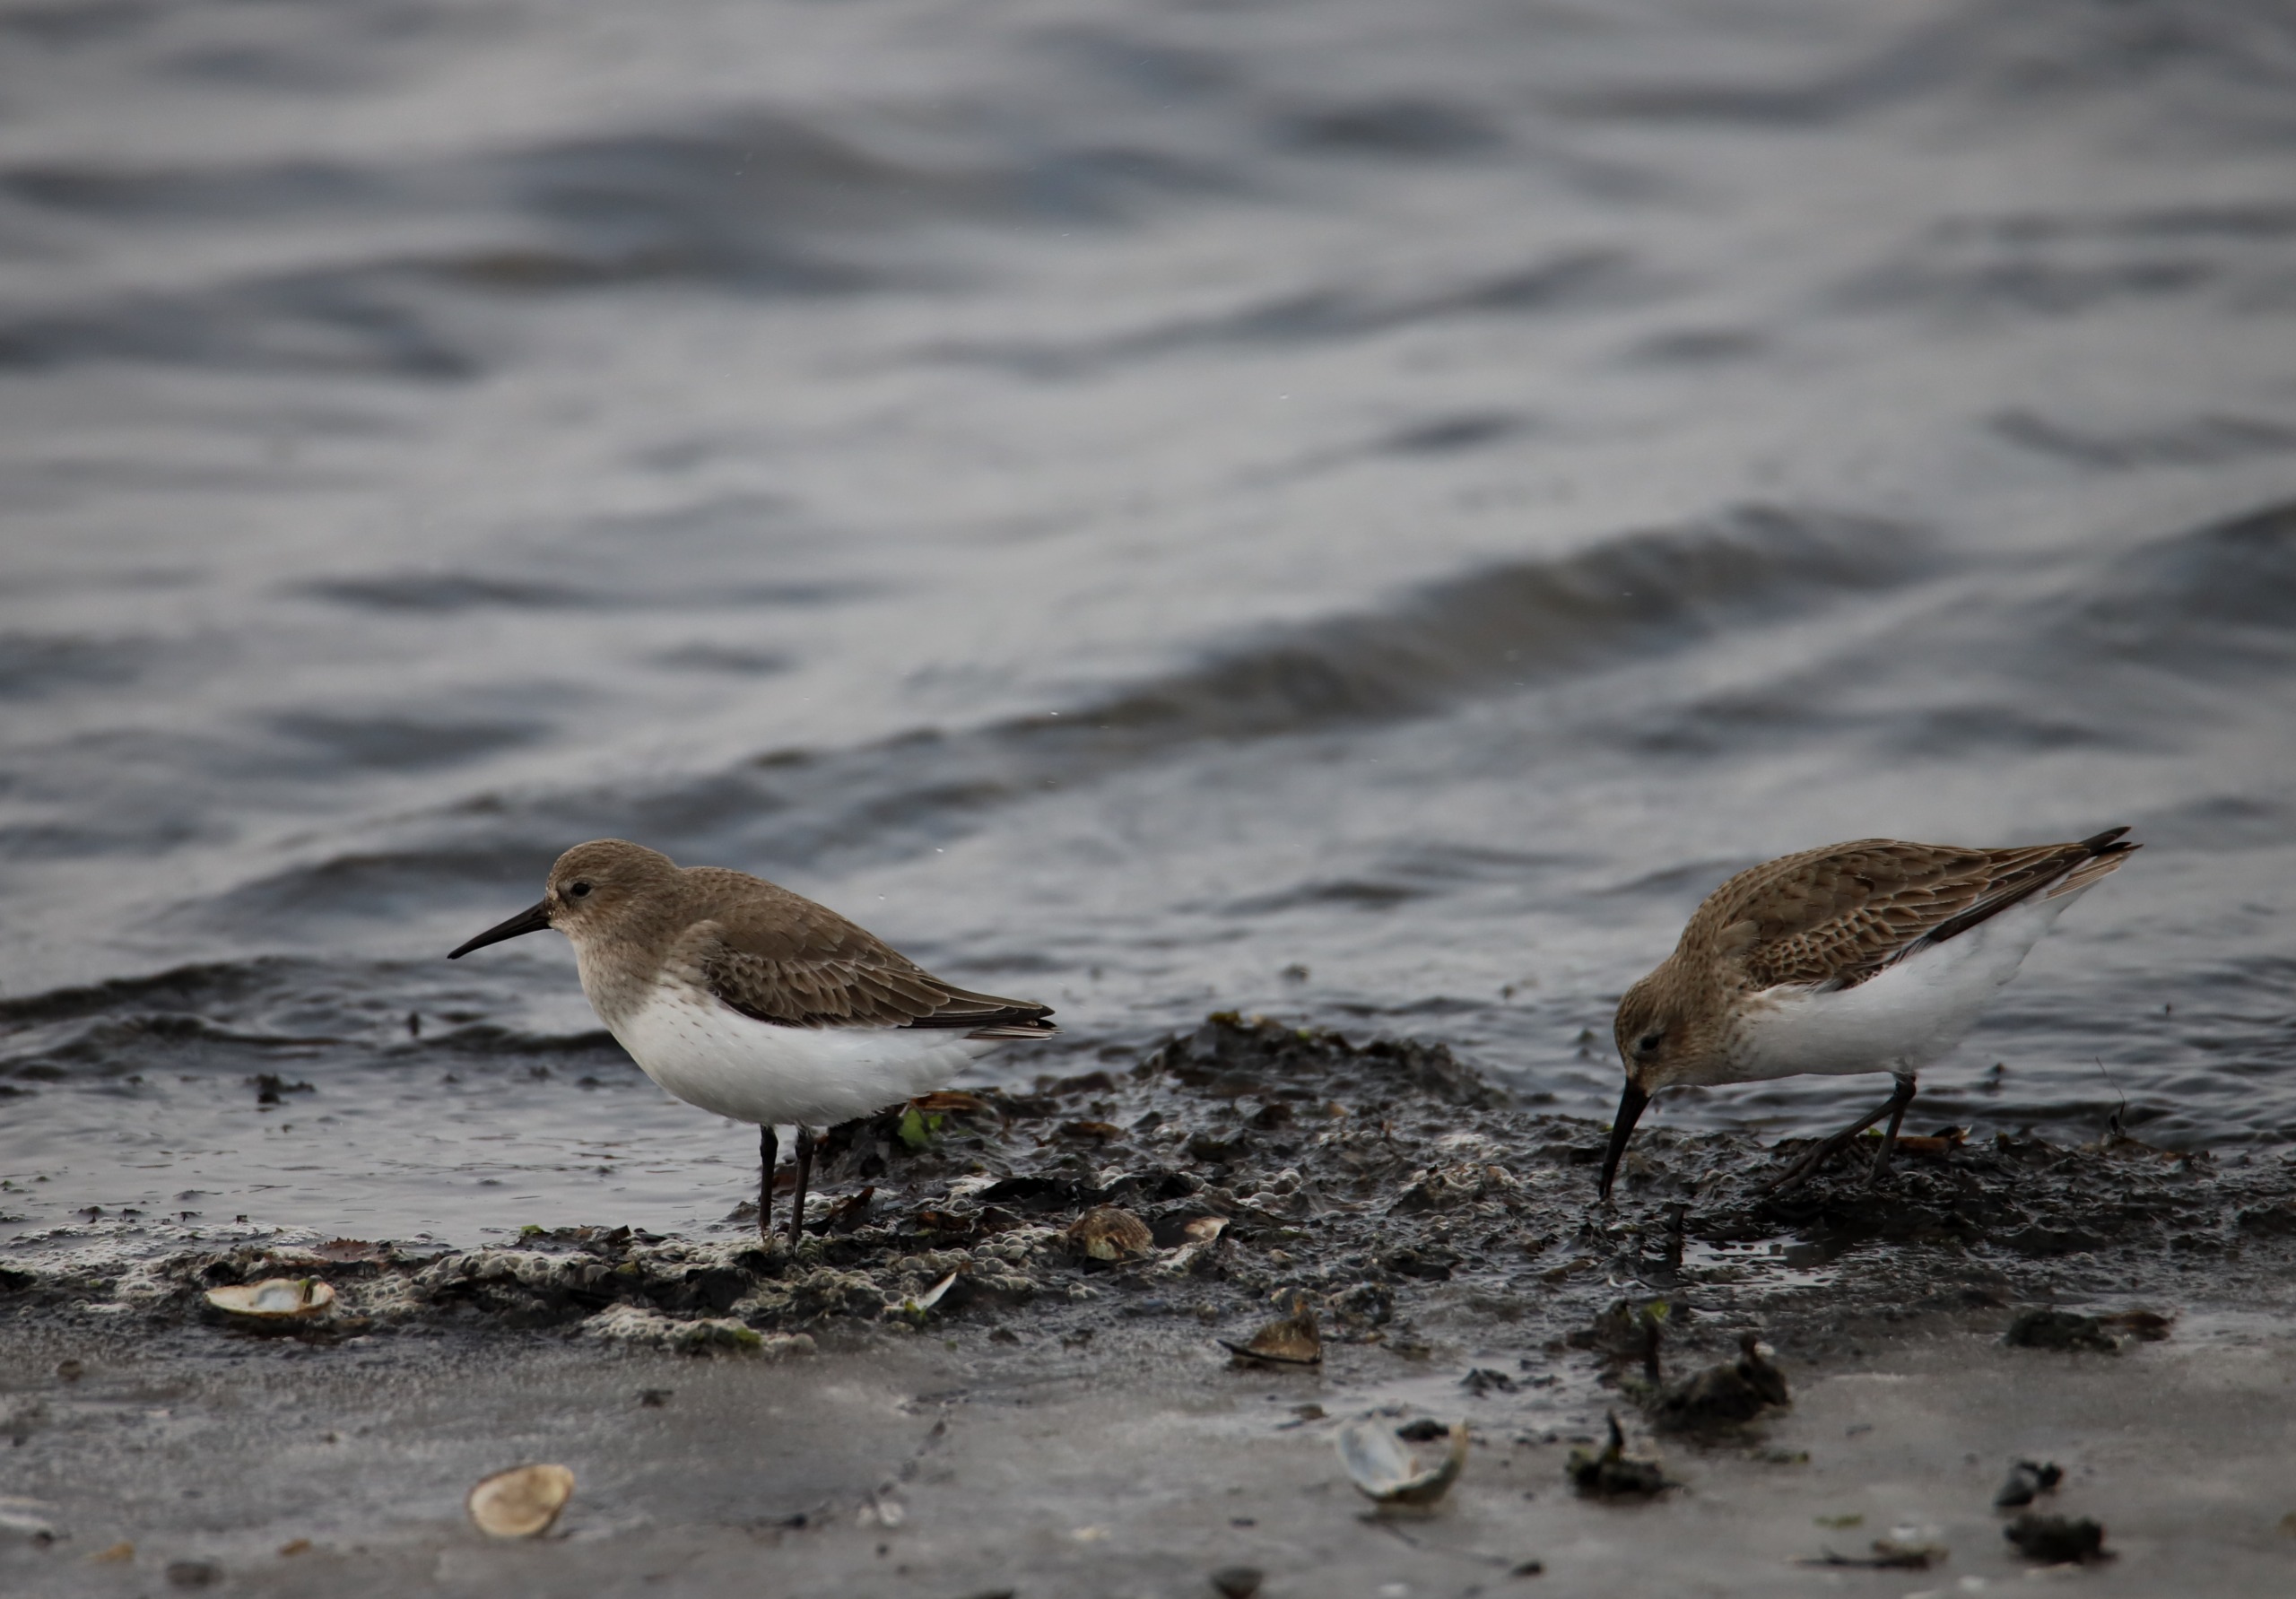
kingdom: Animalia
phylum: Chordata
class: Aves
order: Charadriiformes
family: Scolopacidae
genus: Calidris
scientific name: Calidris alpina
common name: Almindelig ryle
